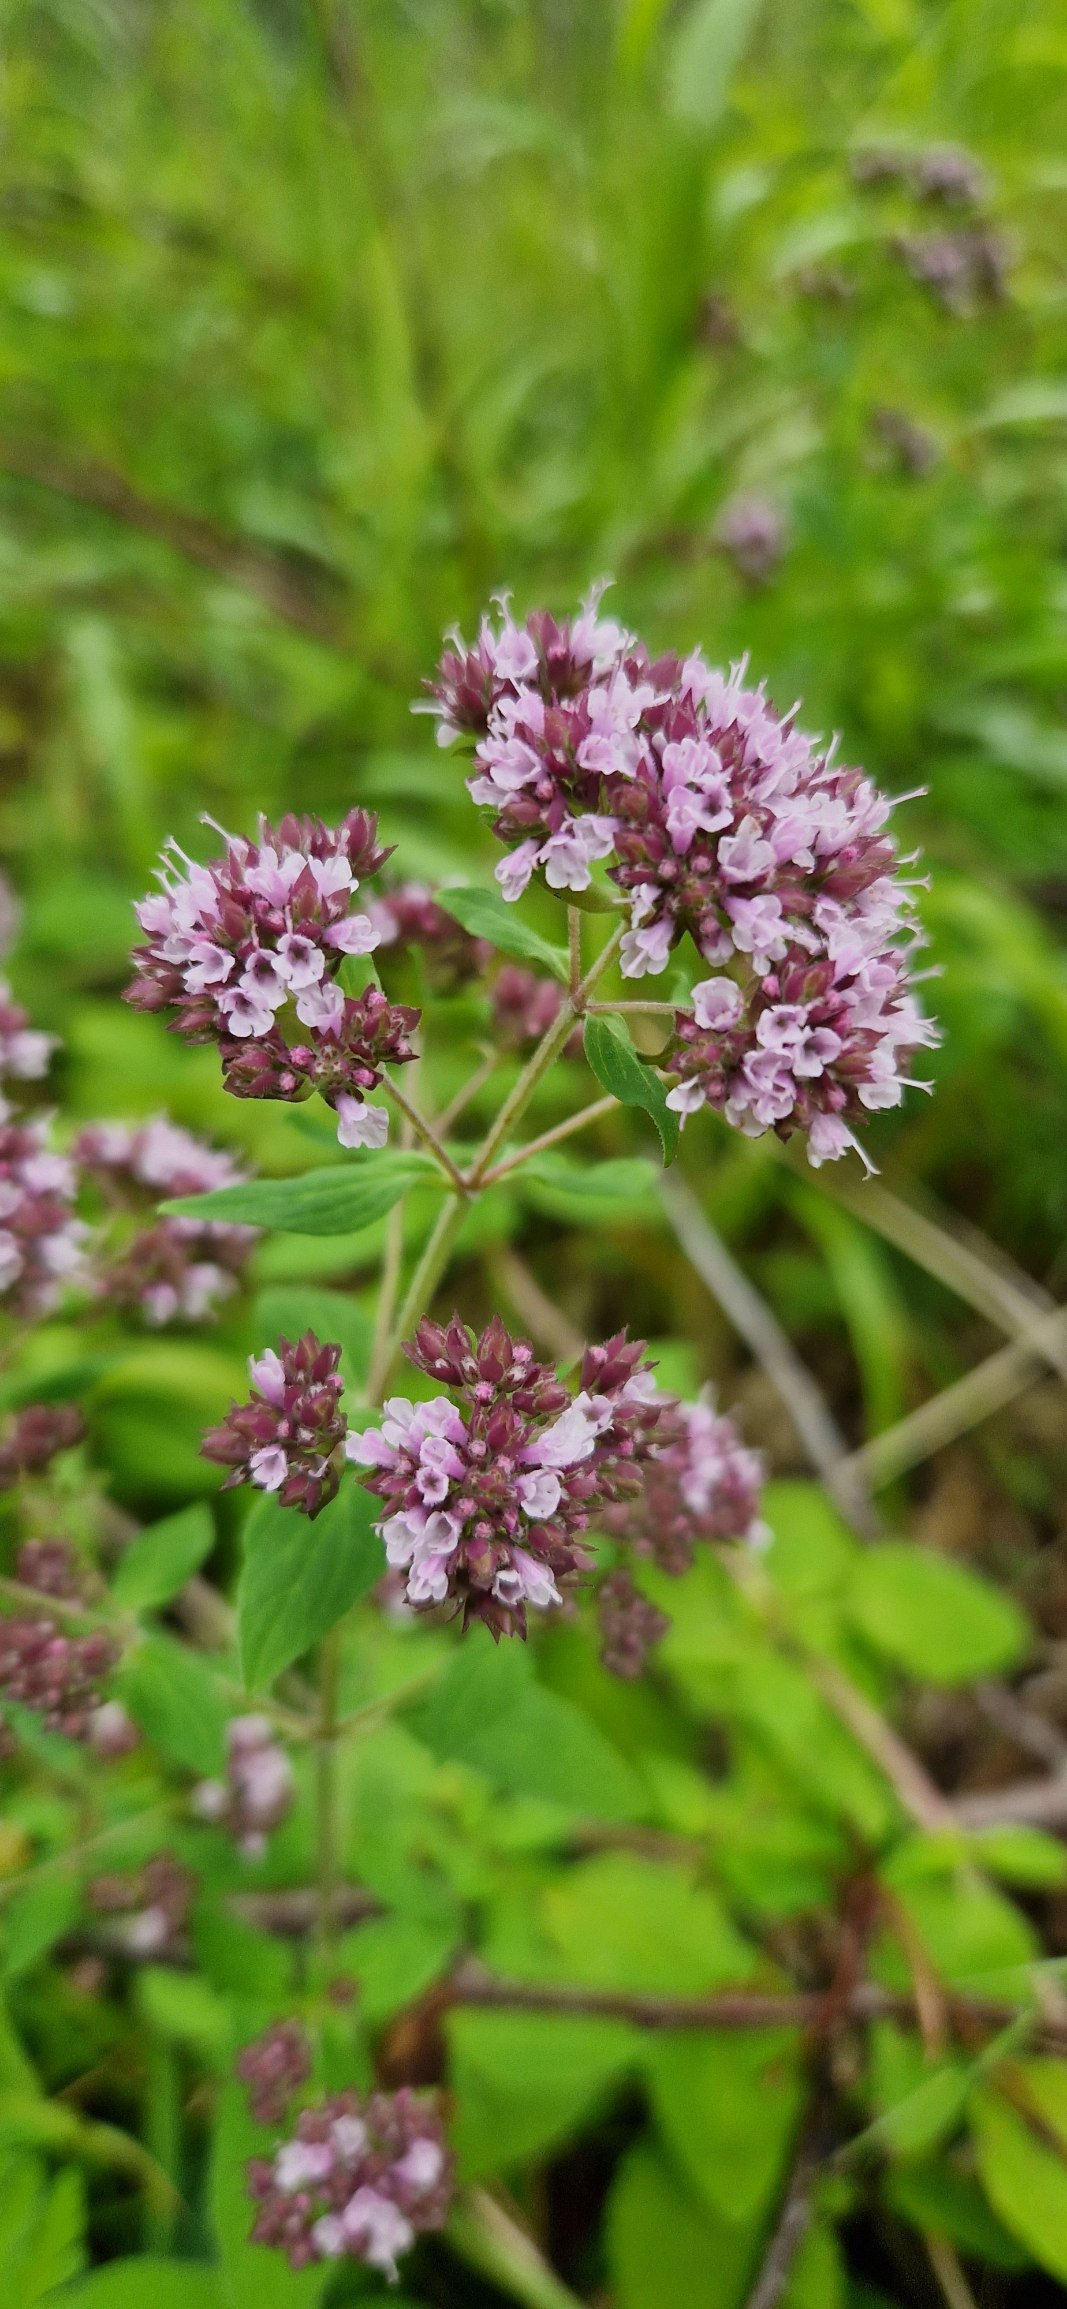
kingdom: Plantae
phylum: Tracheophyta
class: Magnoliopsida
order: Lamiales
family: Lamiaceae
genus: Origanum
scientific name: Origanum vulgare
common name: Merian
